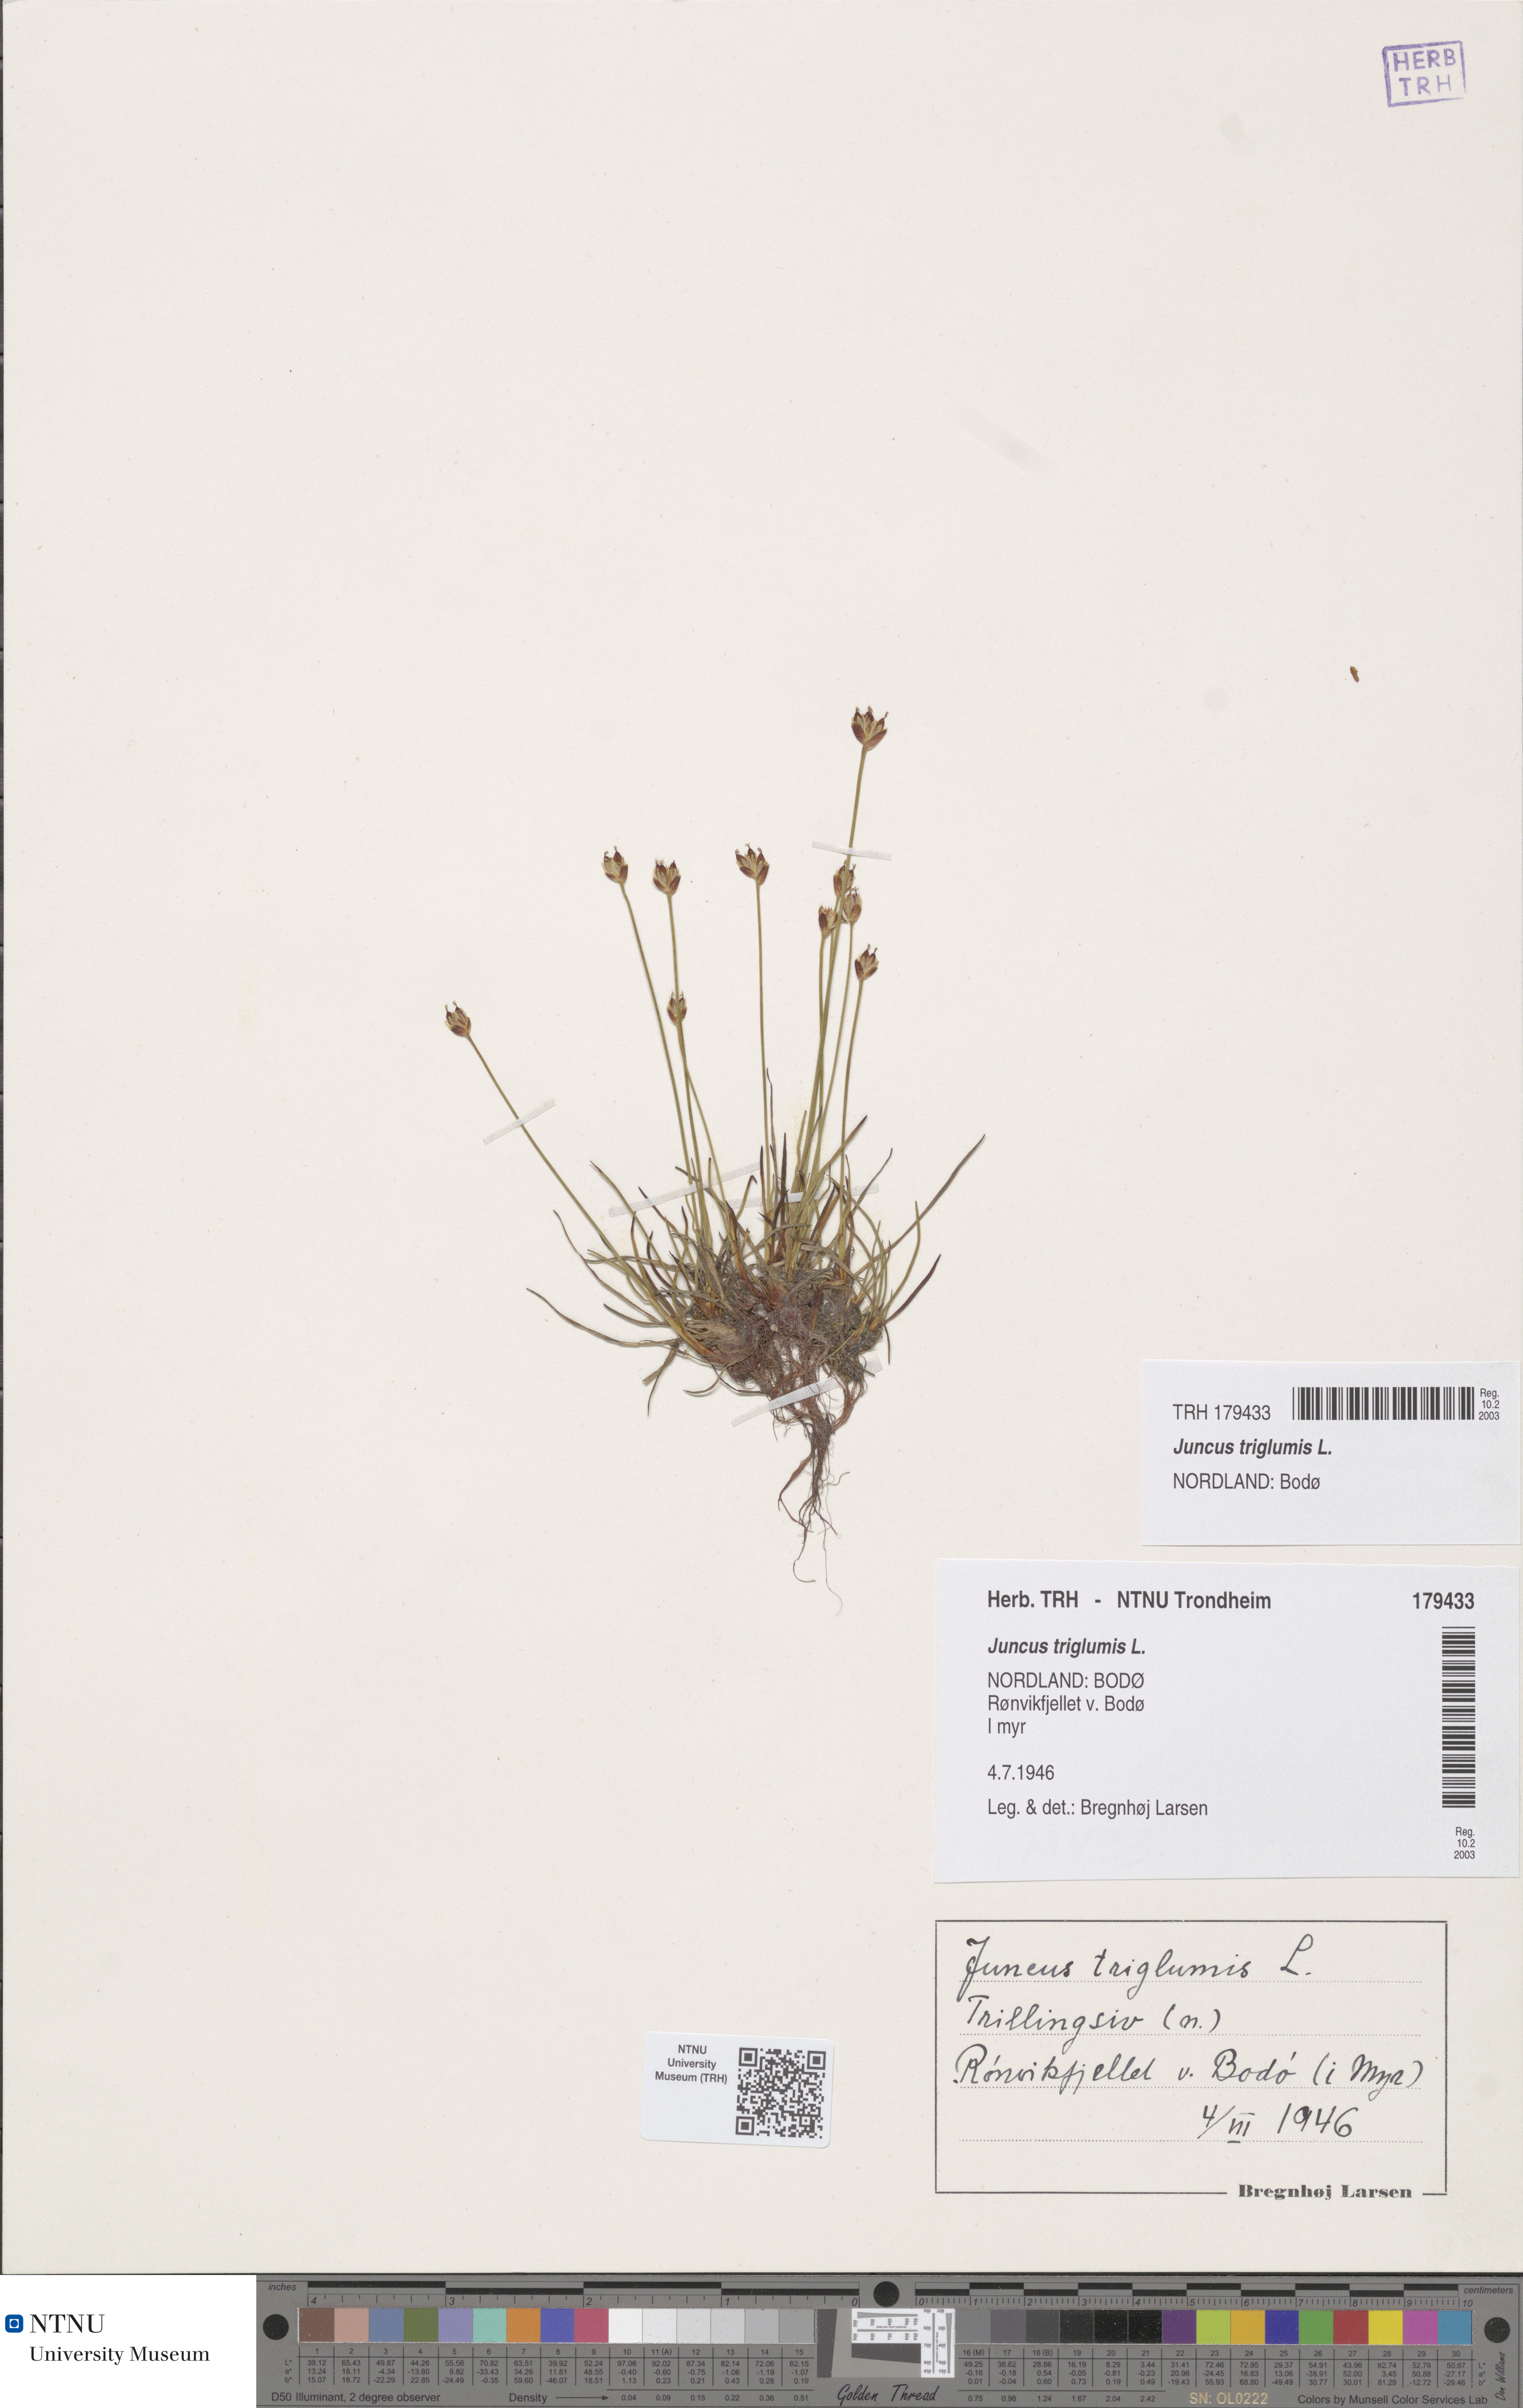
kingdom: Plantae
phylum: Tracheophyta
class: Liliopsida
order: Poales
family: Juncaceae
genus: Juncus
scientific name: Juncus triglumis
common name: Three-flowered rush
